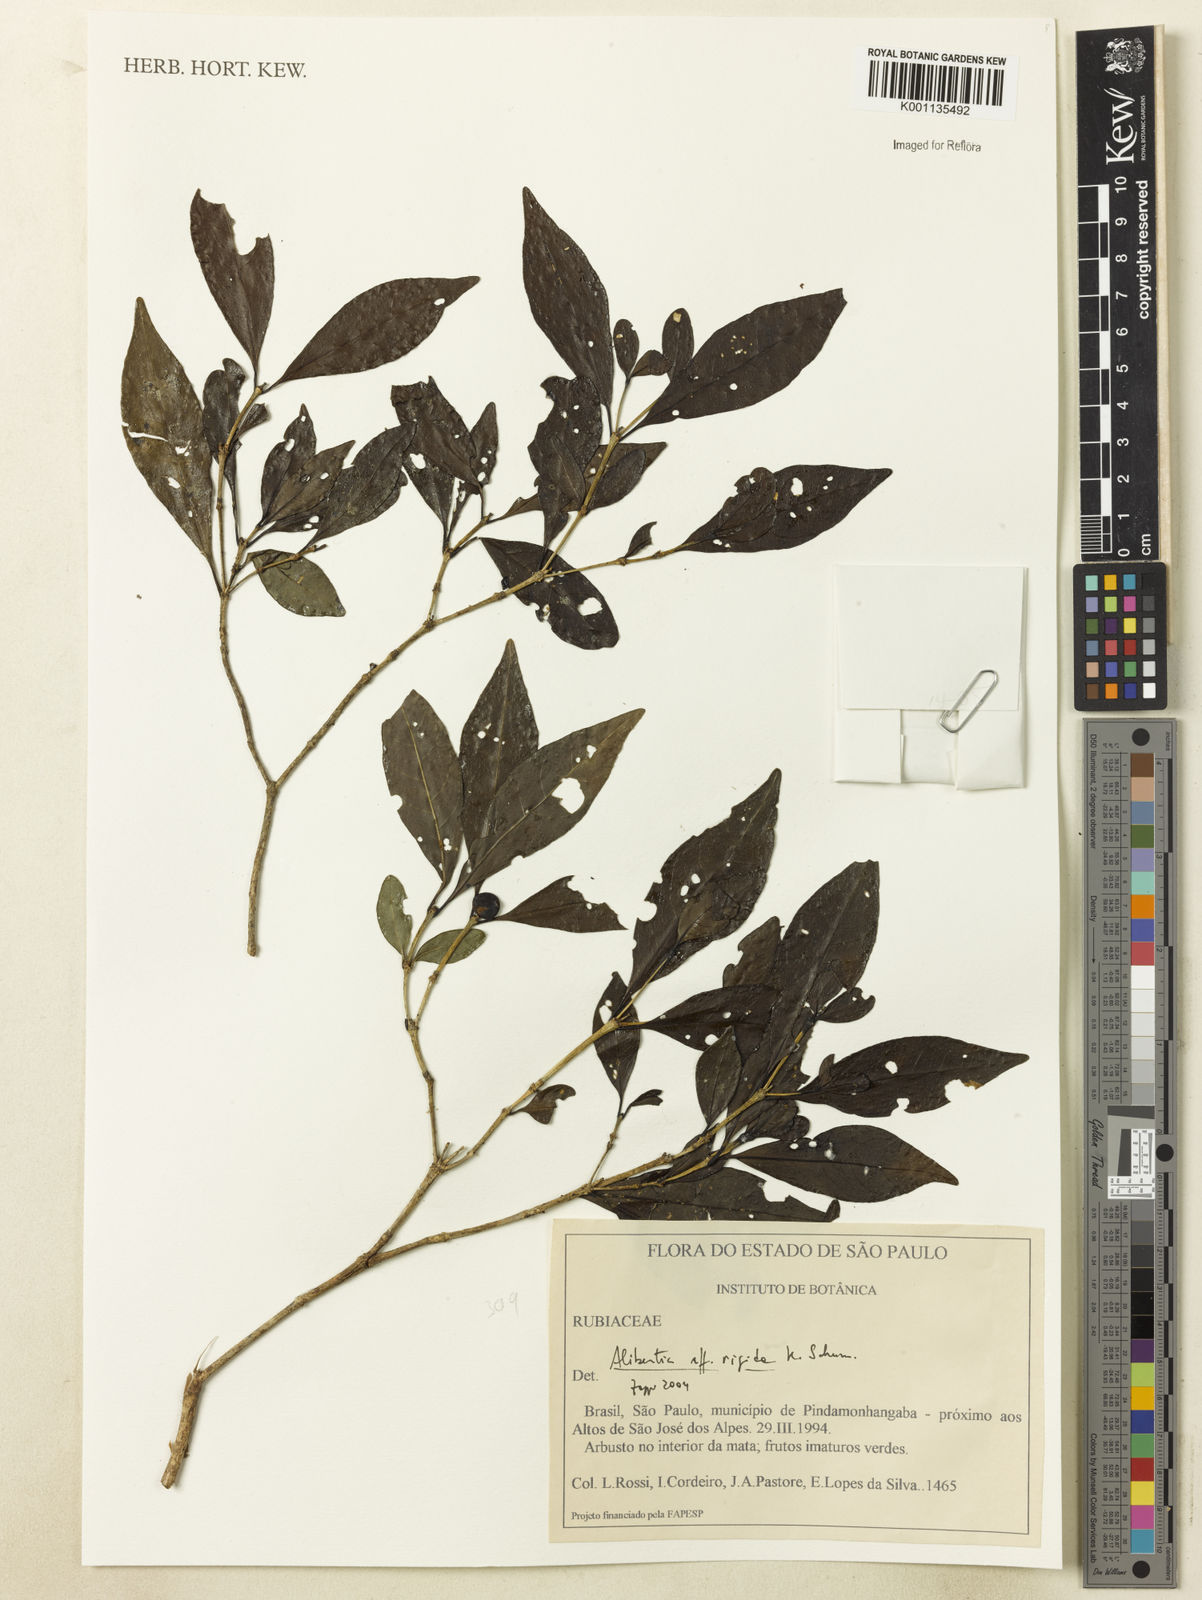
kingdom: Plantae
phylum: Tracheophyta
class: Magnoliopsida
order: Gentianales
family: Rubiaceae
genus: Cordiera
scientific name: Cordiera rigida
